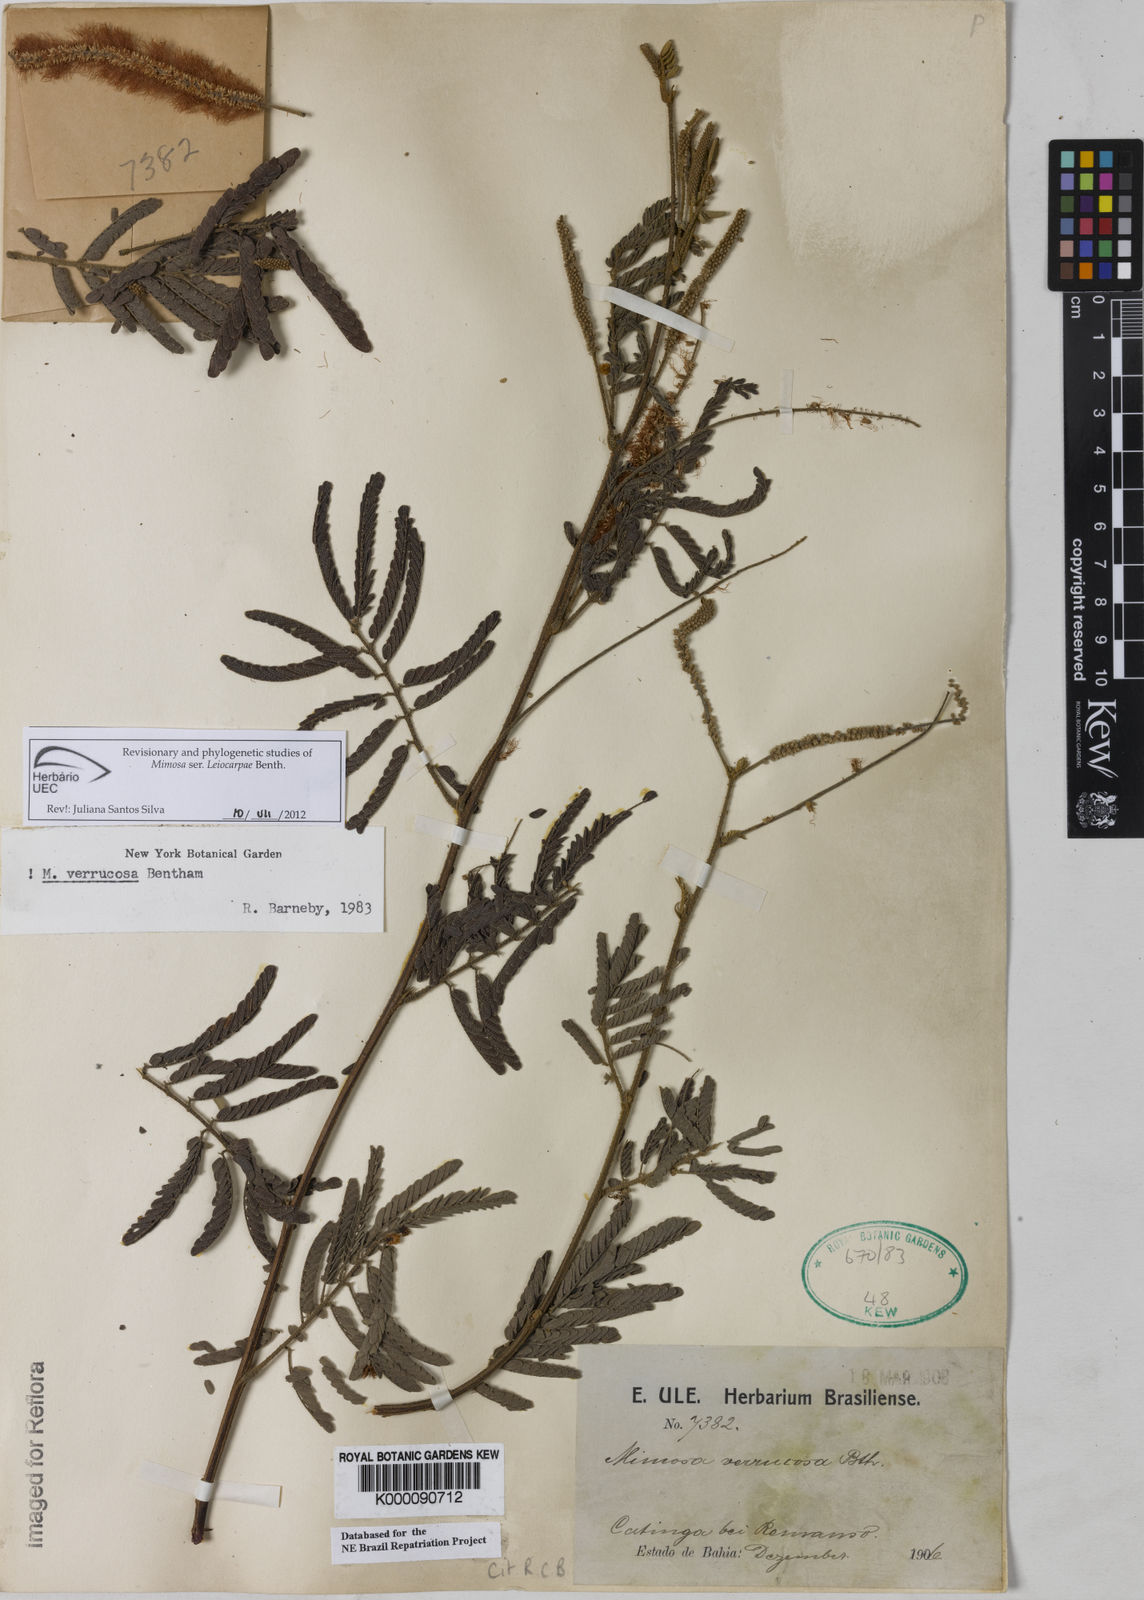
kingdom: Plantae
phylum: Tracheophyta
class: Magnoliopsida
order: Fabales
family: Fabaceae
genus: Mimosa
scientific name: Mimosa verrucosa
